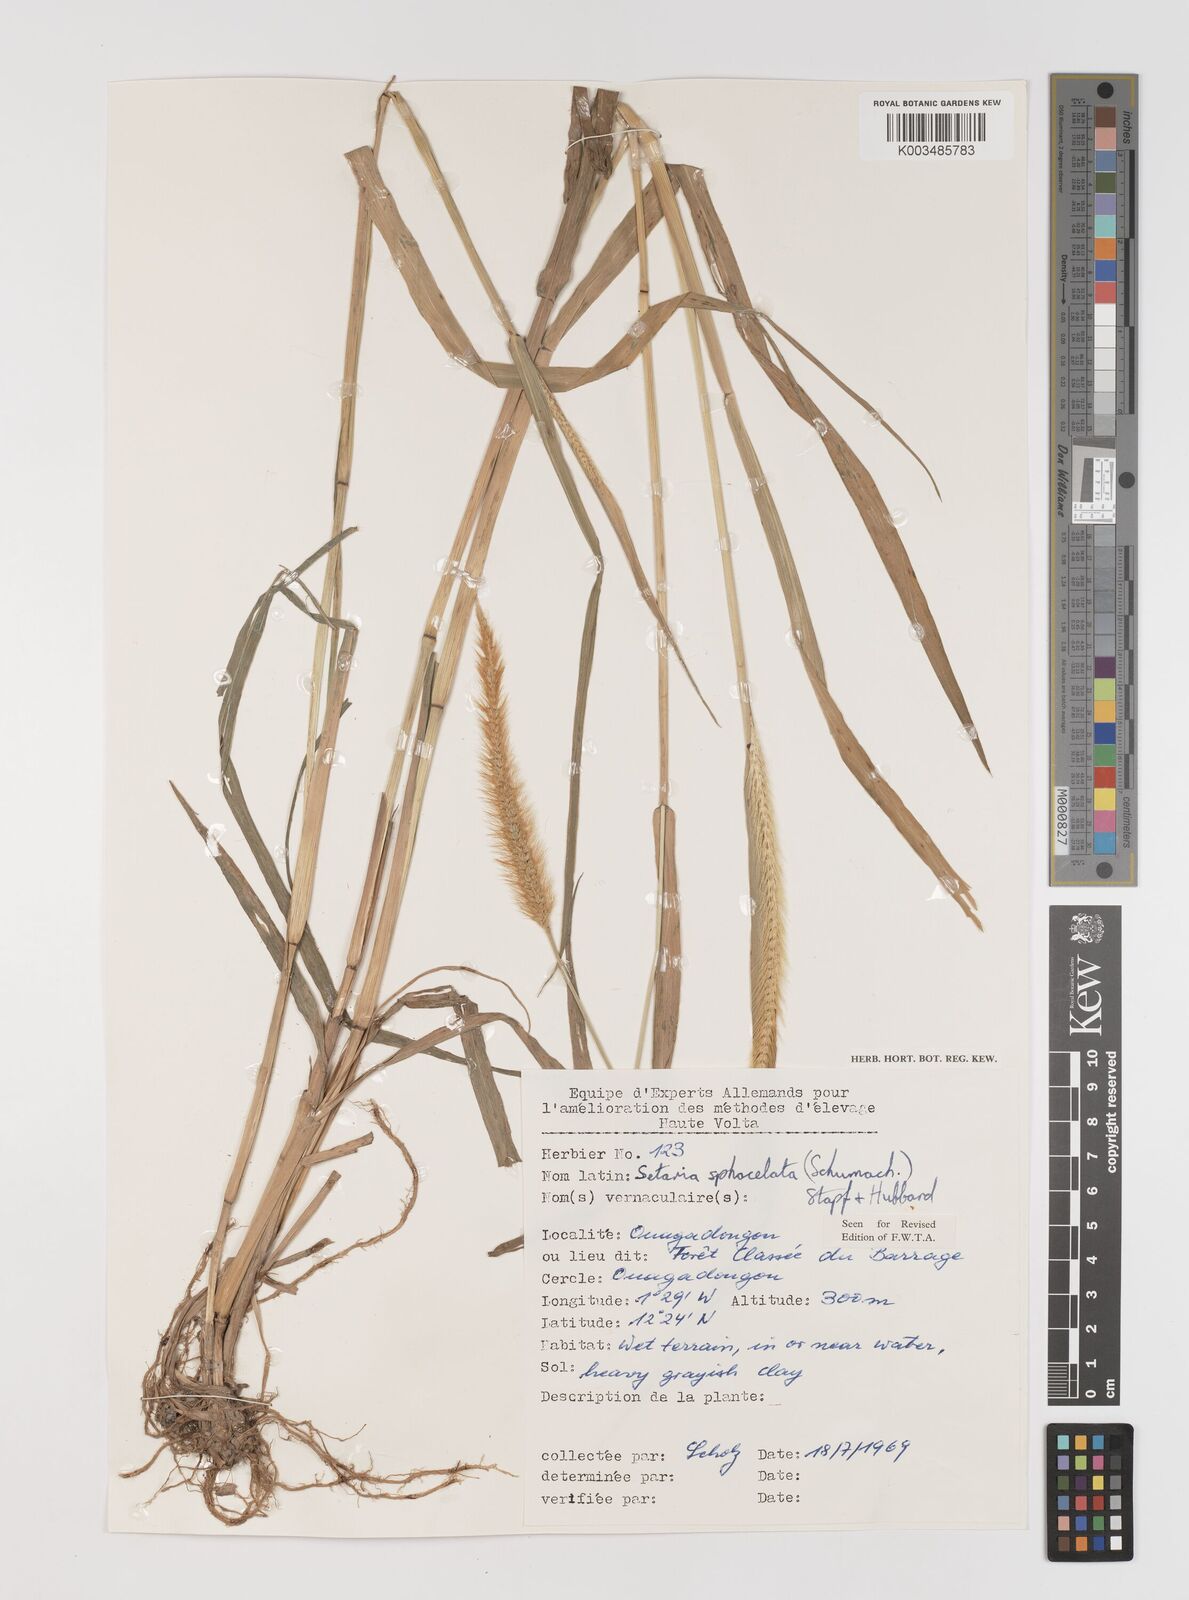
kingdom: Plantae
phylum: Tracheophyta
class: Liliopsida
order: Poales
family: Poaceae
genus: Setaria
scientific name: Setaria sphacelata
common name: African bristlegrass
